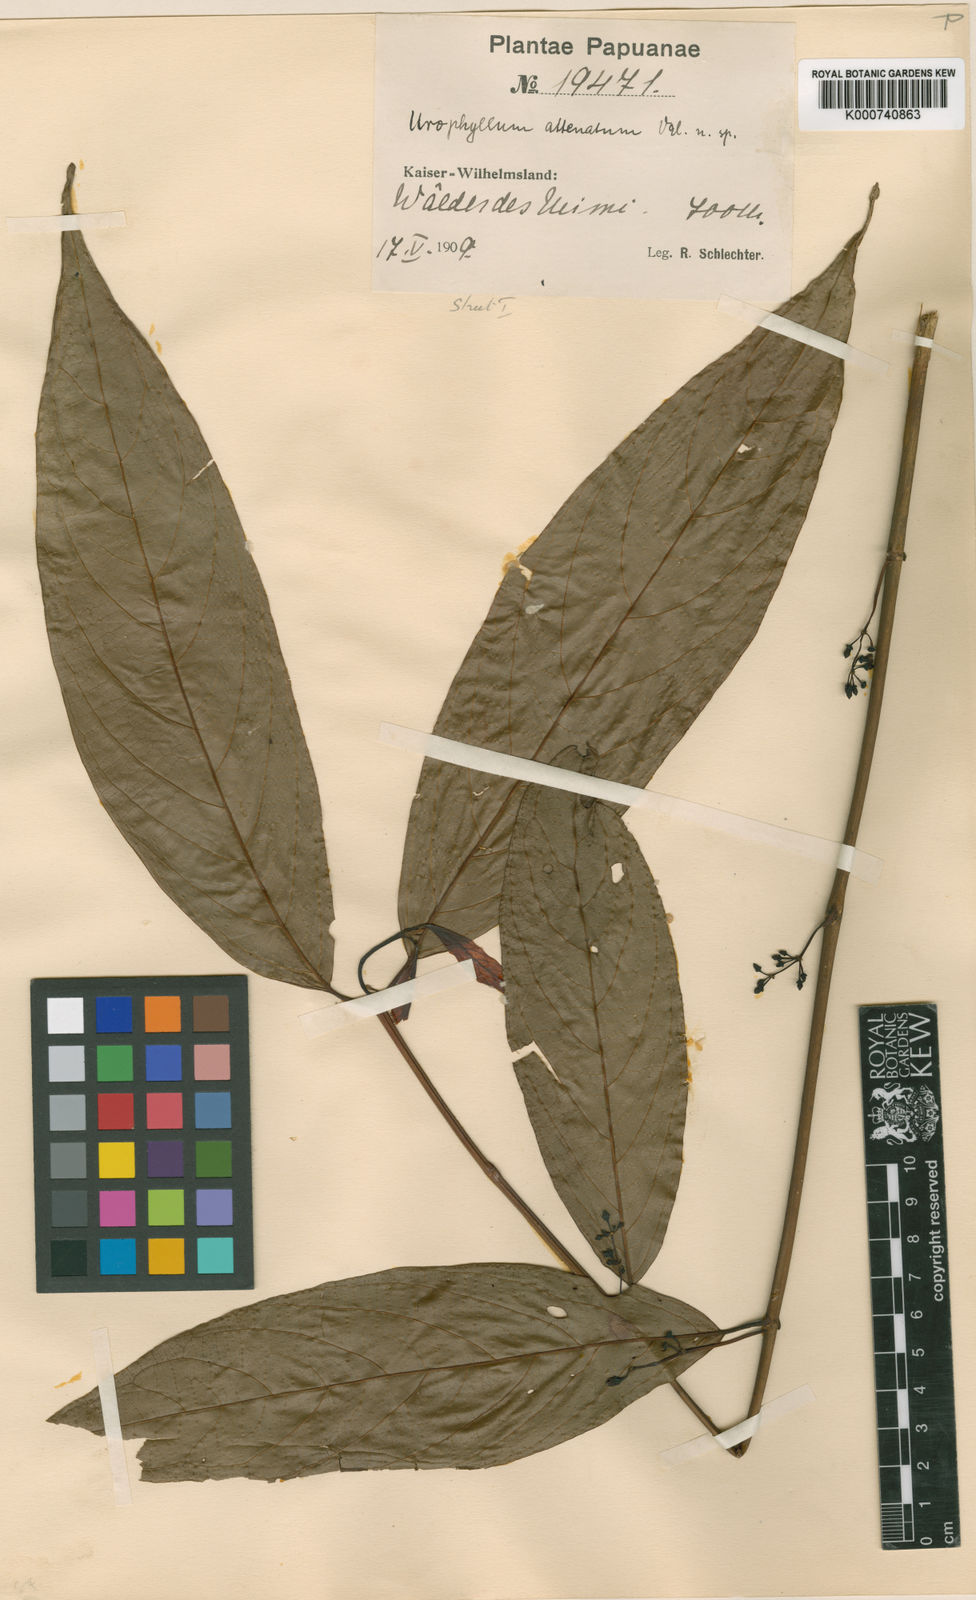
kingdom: Plantae
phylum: Tracheophyta
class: Magnoliopsida
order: Gentianales
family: Rubiaceae
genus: Urophyllum
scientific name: Urophyllum attenuatum
